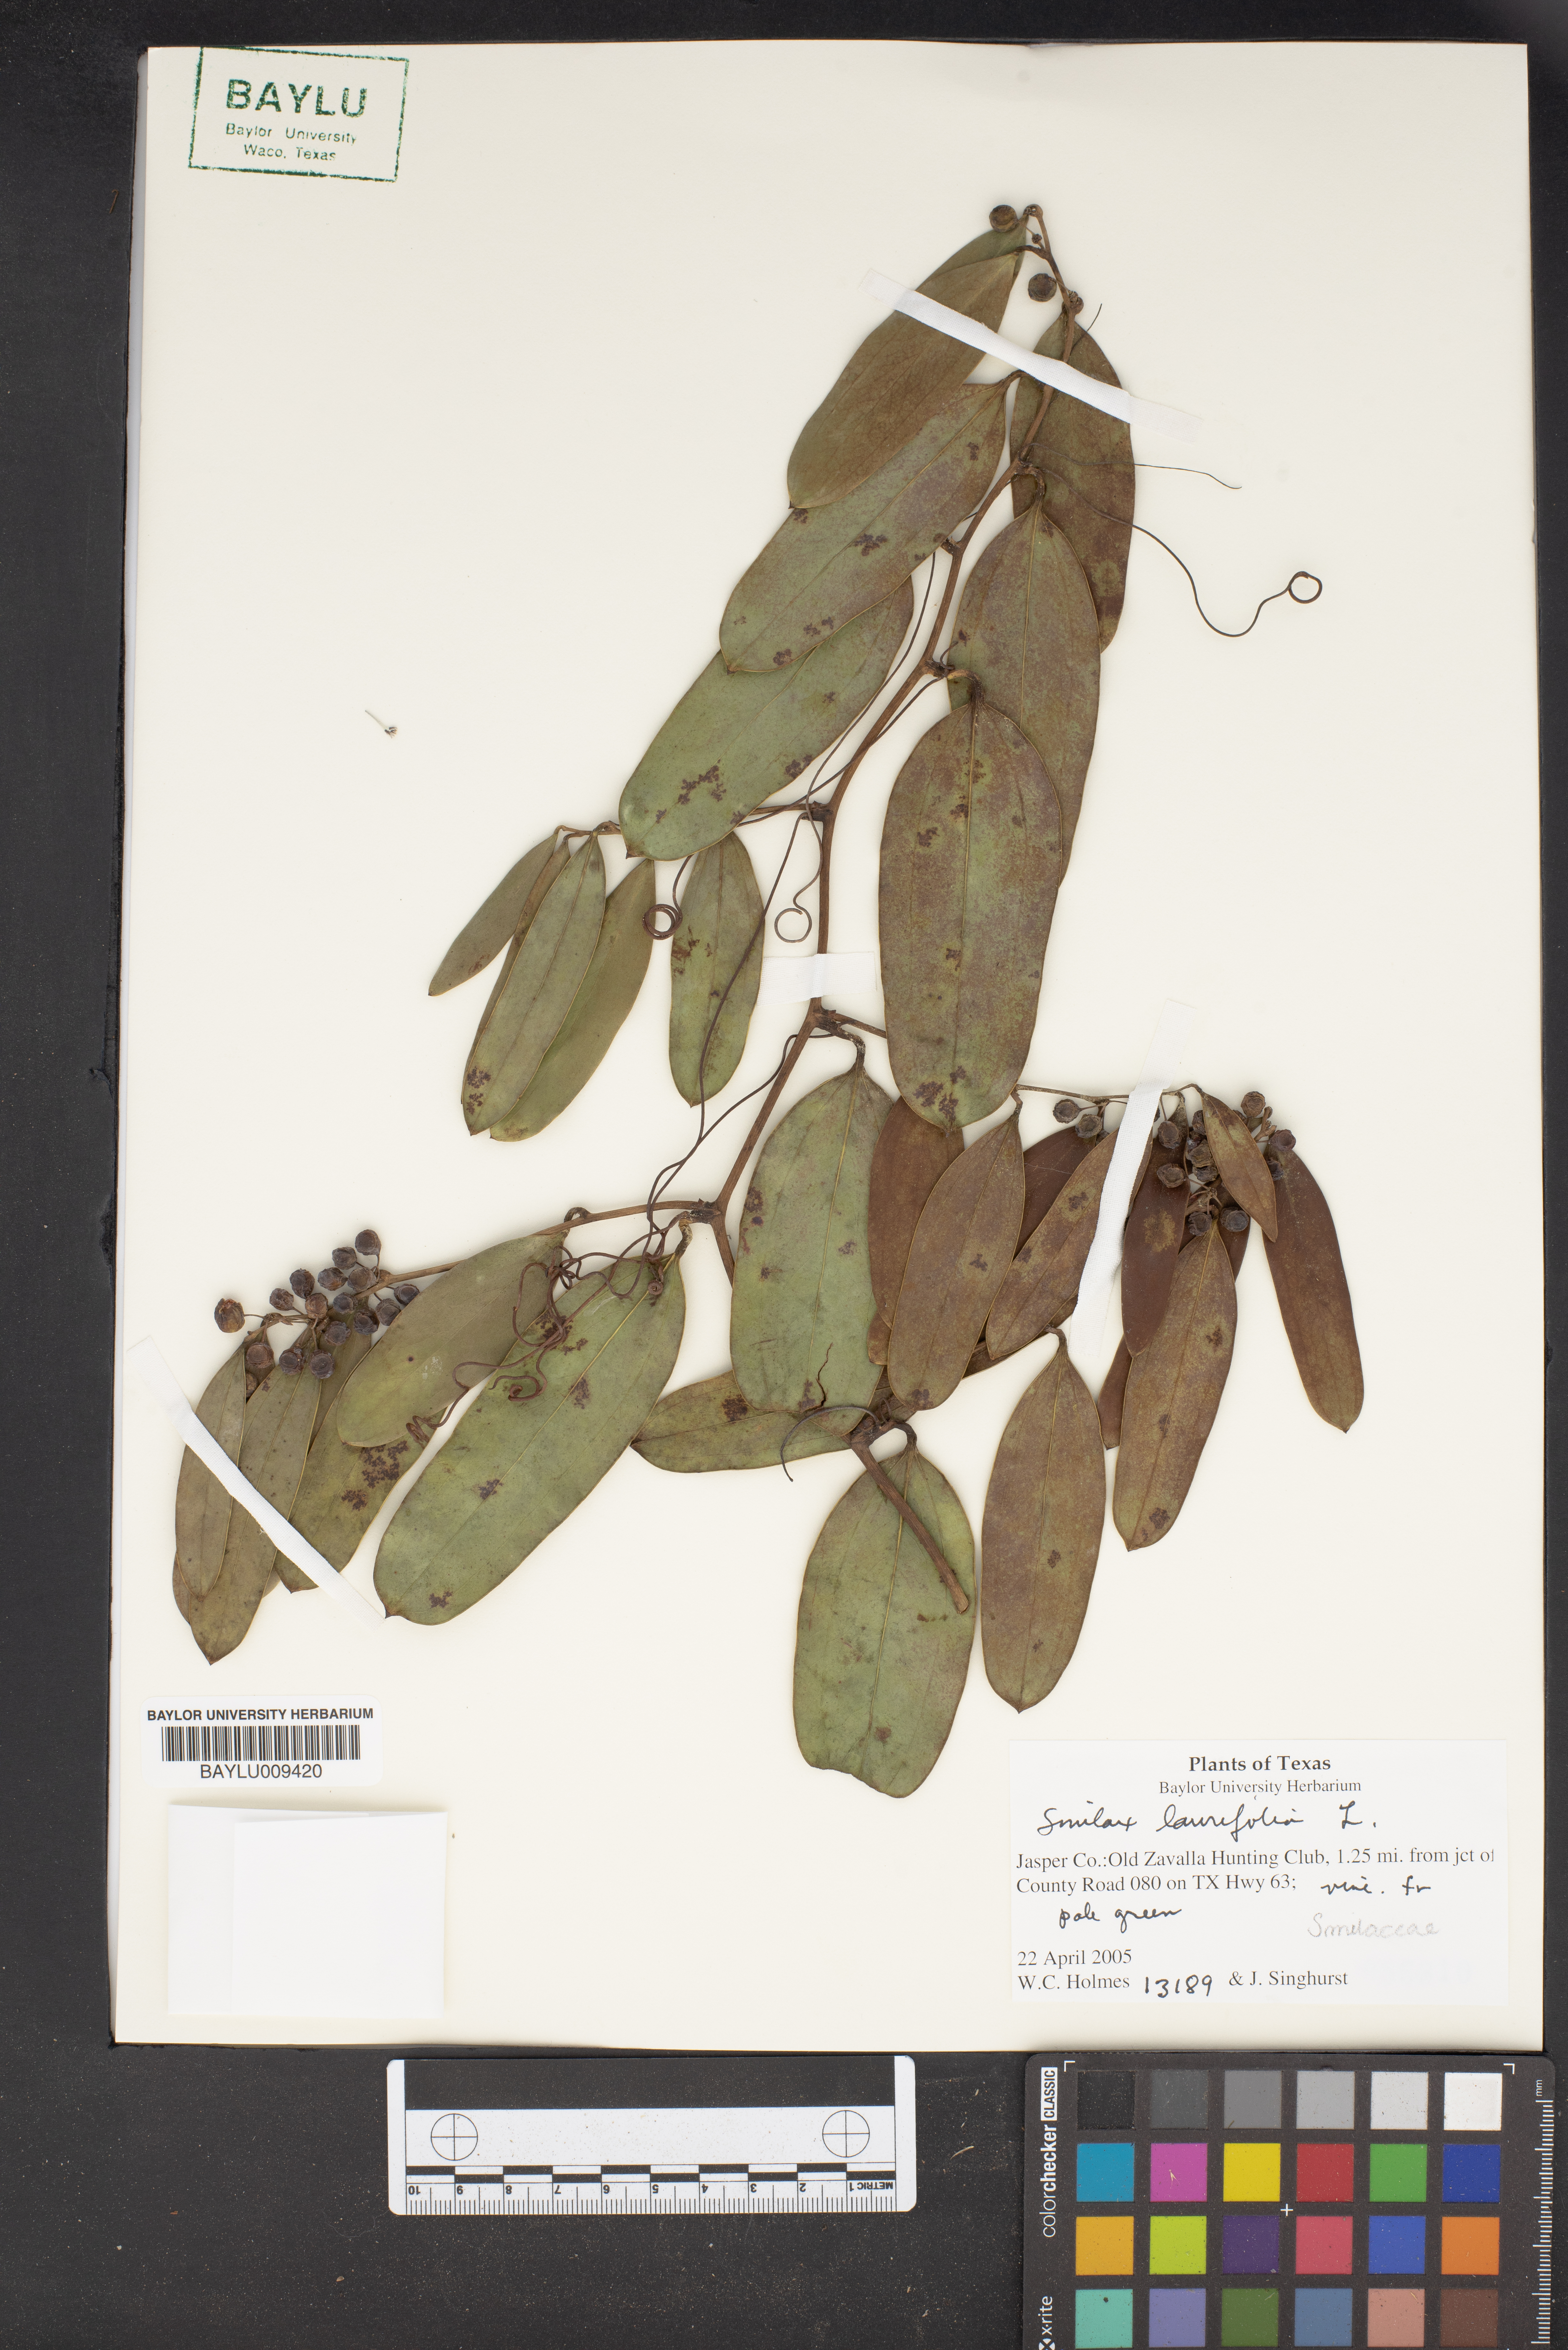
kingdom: Plantae
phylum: Tracheophyta
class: Liliopsida
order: Liliales
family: Smilacaceae
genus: Smilax
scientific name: Smilax laurifolia
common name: Bamboovine
